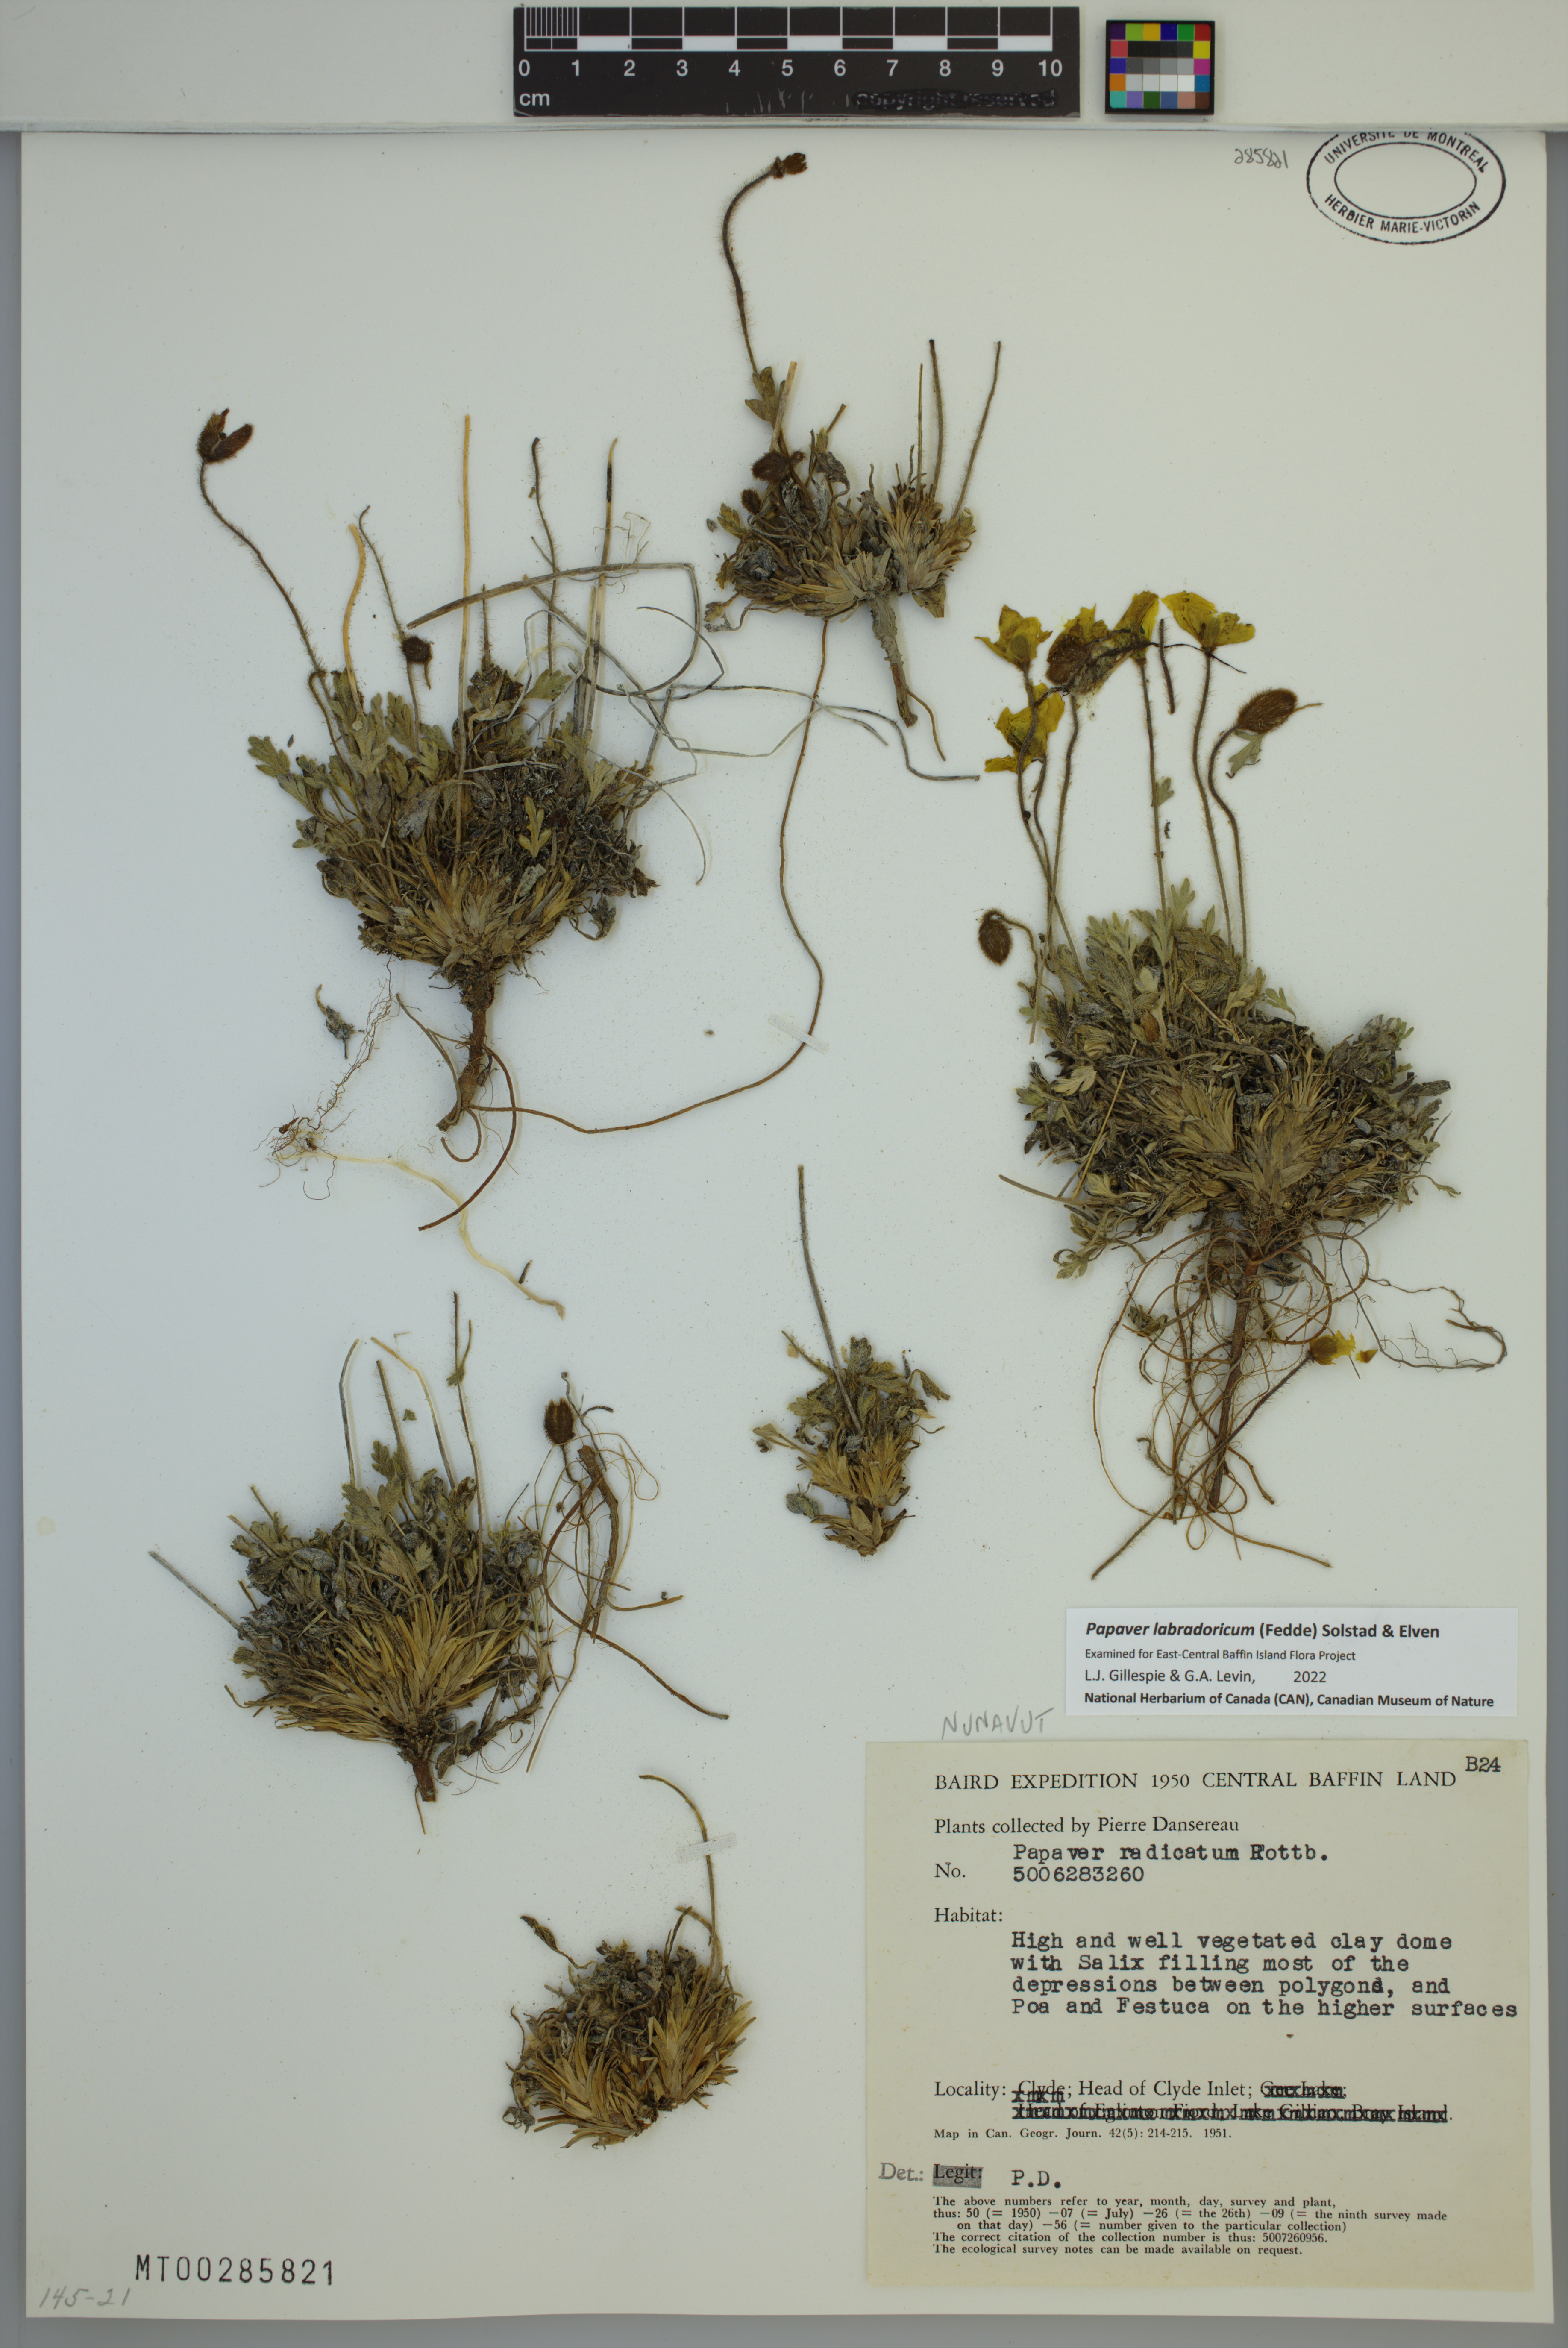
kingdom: Plantae
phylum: Tracheophyta
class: Magnoliopsida
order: Ranunculales
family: Papaveraceae
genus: Papaver
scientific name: Papaver radicatum
